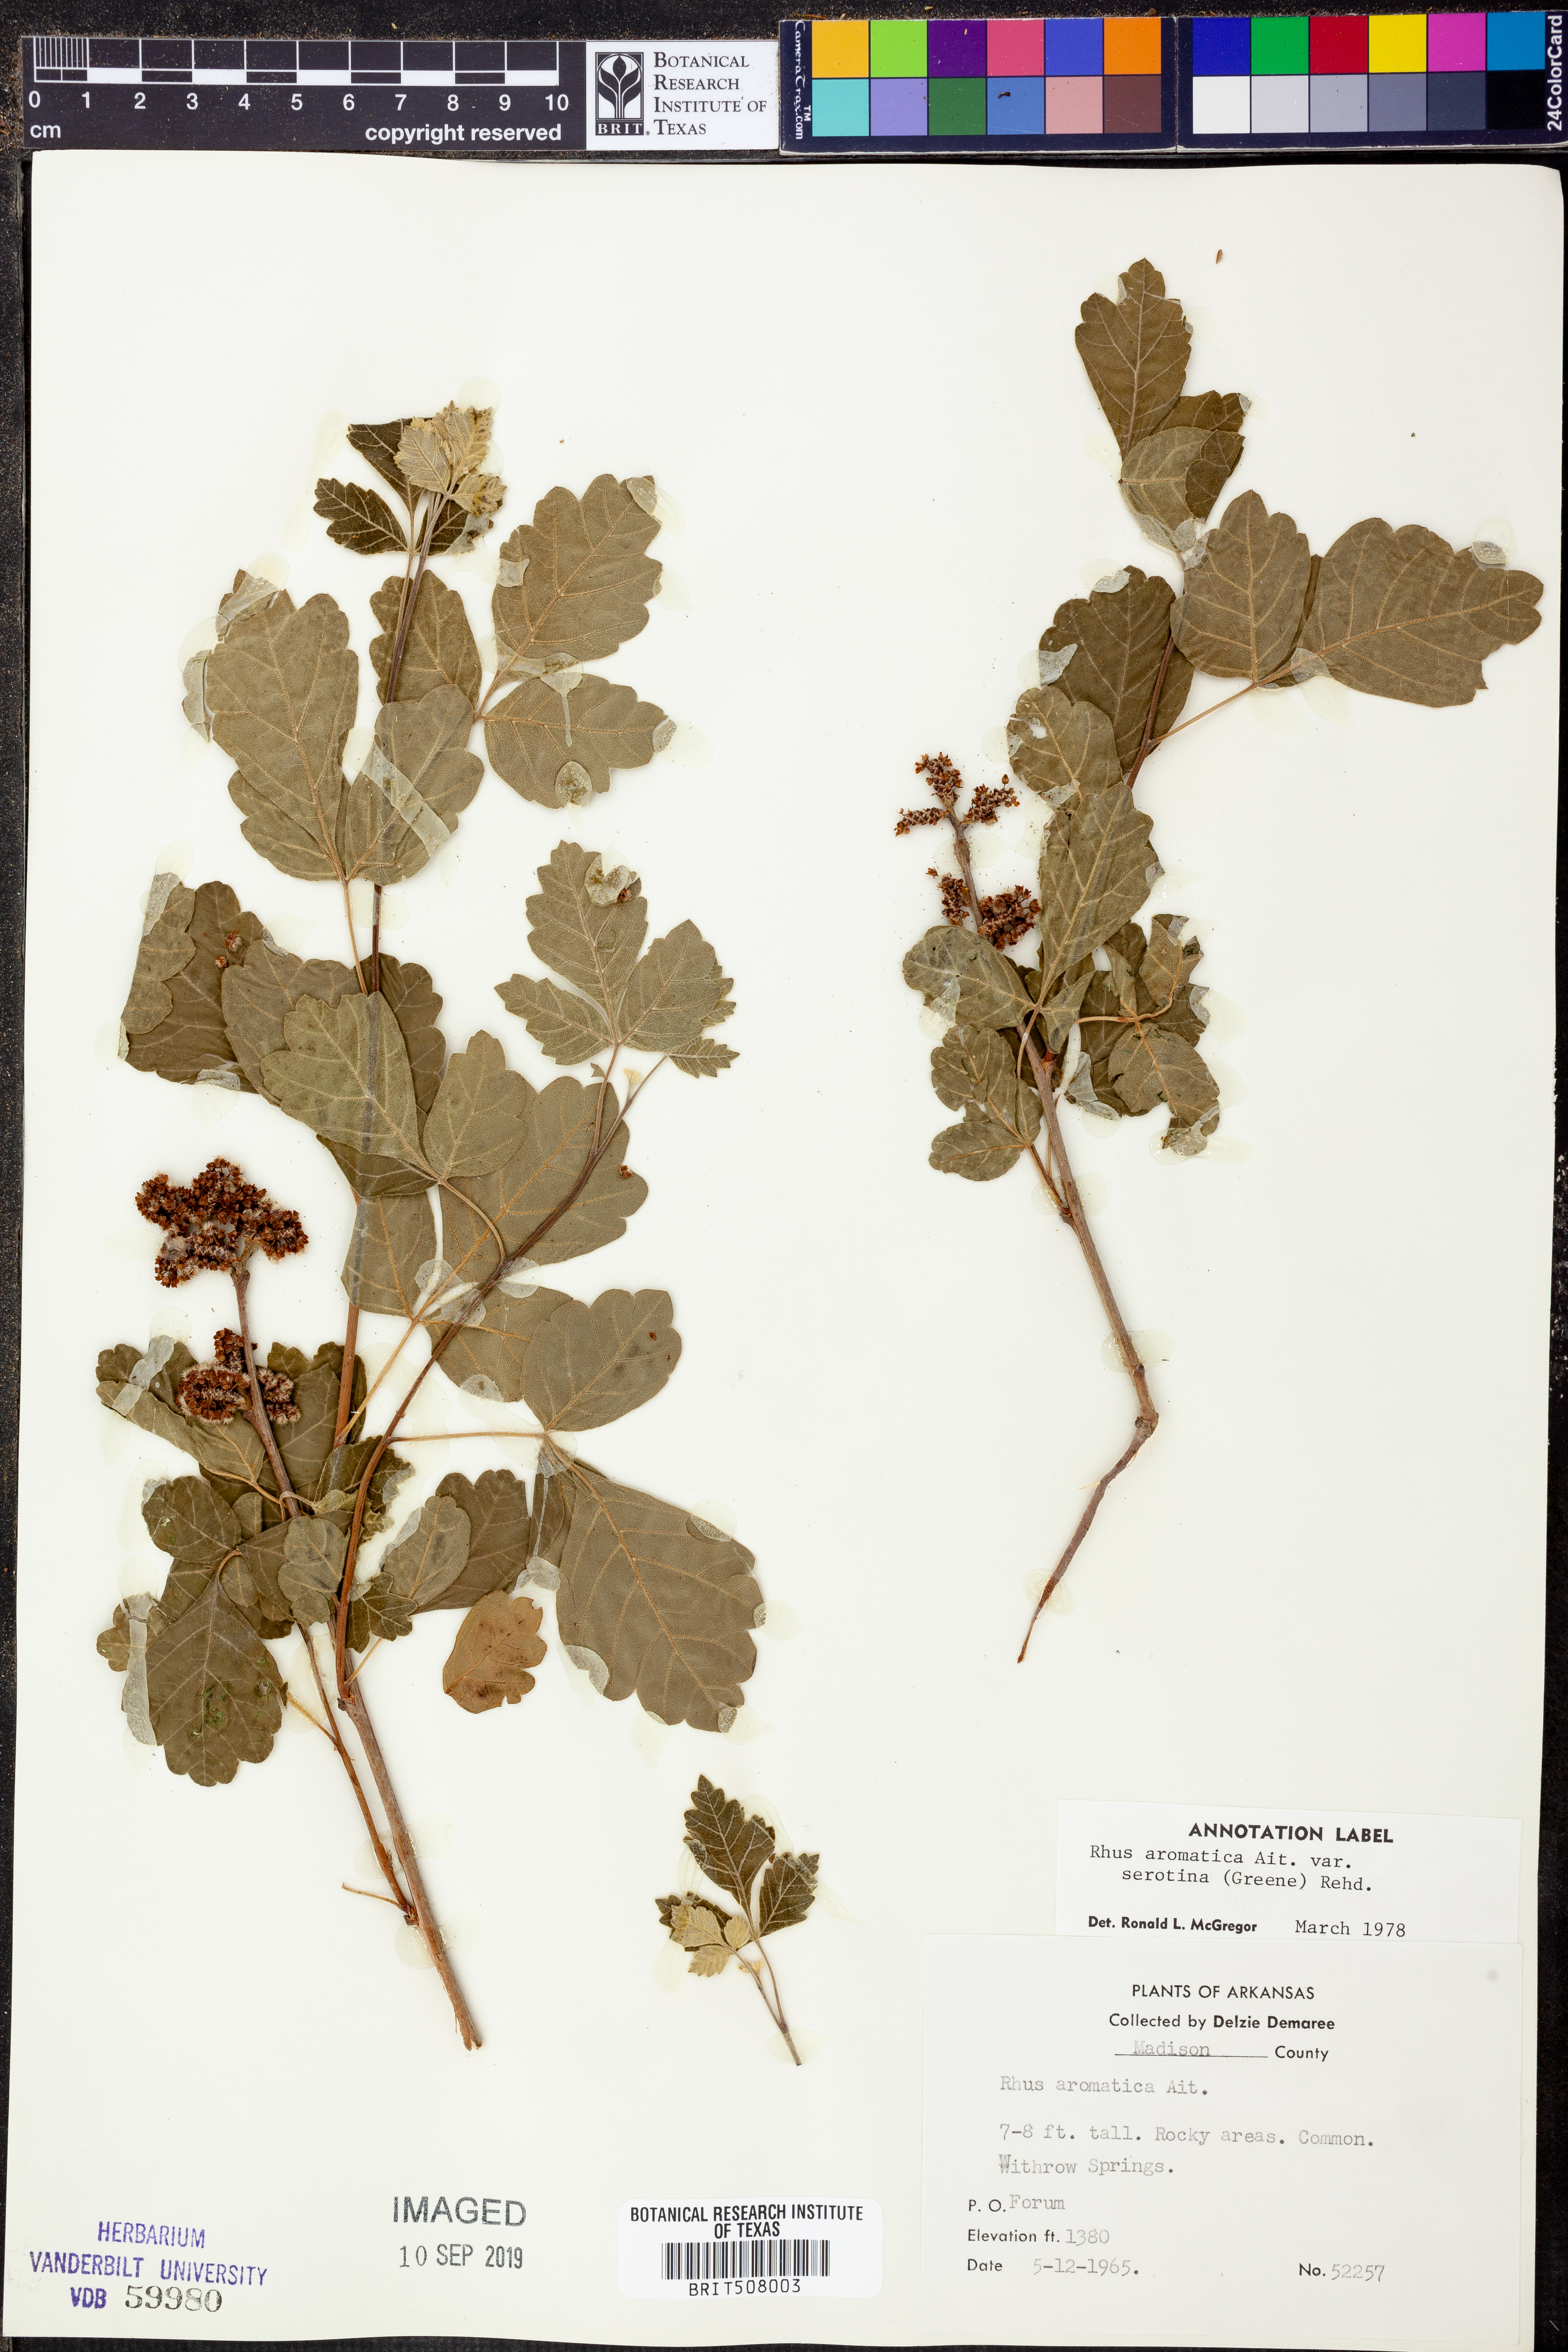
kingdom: Plantae
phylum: Tracheophyta
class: Magnoliopsida
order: Sapindales
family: Anacardiaceae
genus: Rhus
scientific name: Rhus aromatica
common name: Aromatic sumac
